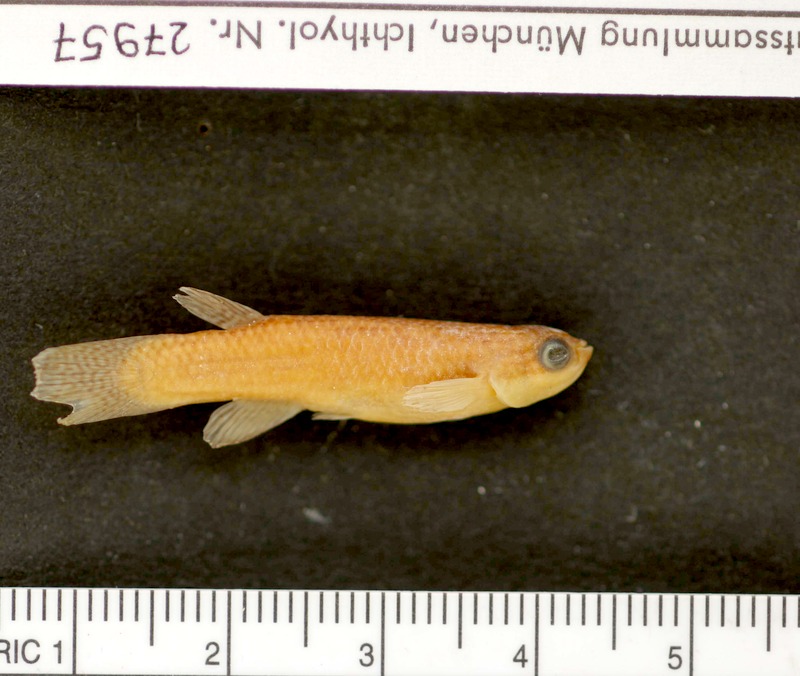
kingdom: Animalia
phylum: Chordata
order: Cyprinodontiformes
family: Rivulidae
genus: Laimosemion
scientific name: Laimosemion lyricauda
